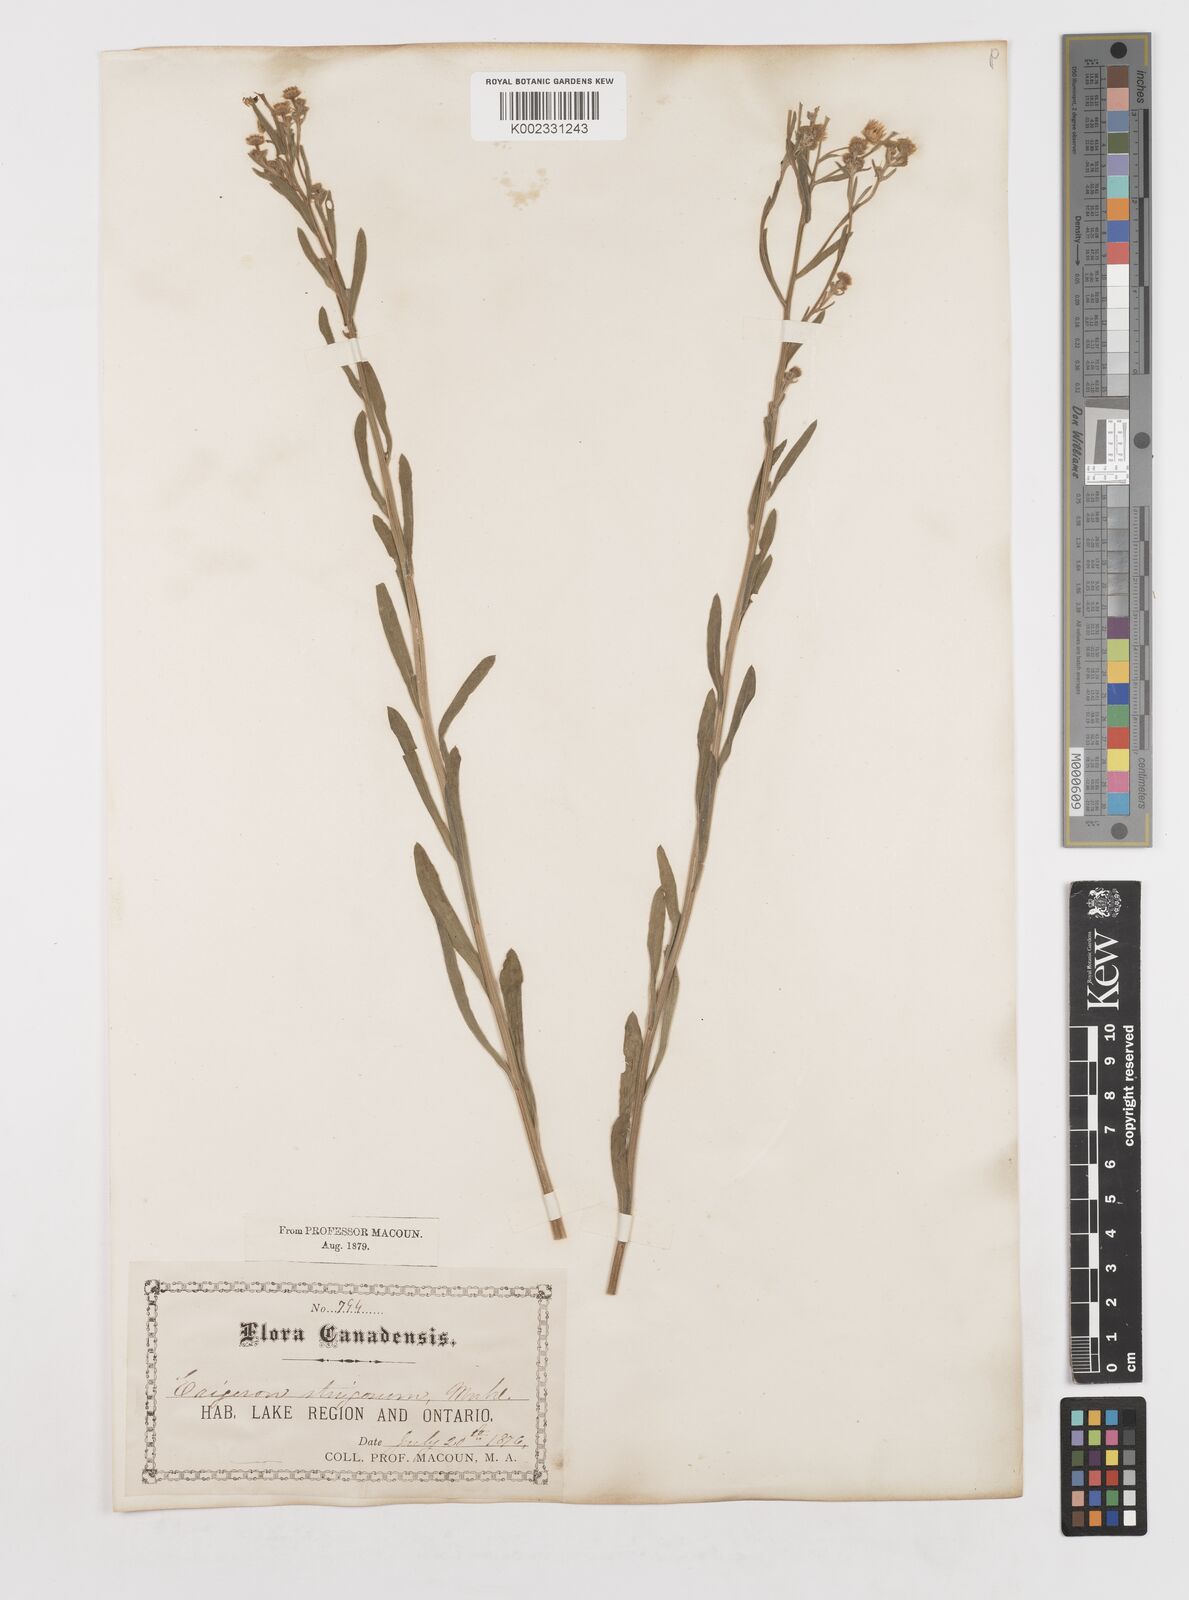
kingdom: Plantae
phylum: Tracheophyta
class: Magnoliopsida
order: Asterales
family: Asteraceae
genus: Erigeron
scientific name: Erigeron strigosus
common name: Common eastern fleabane
